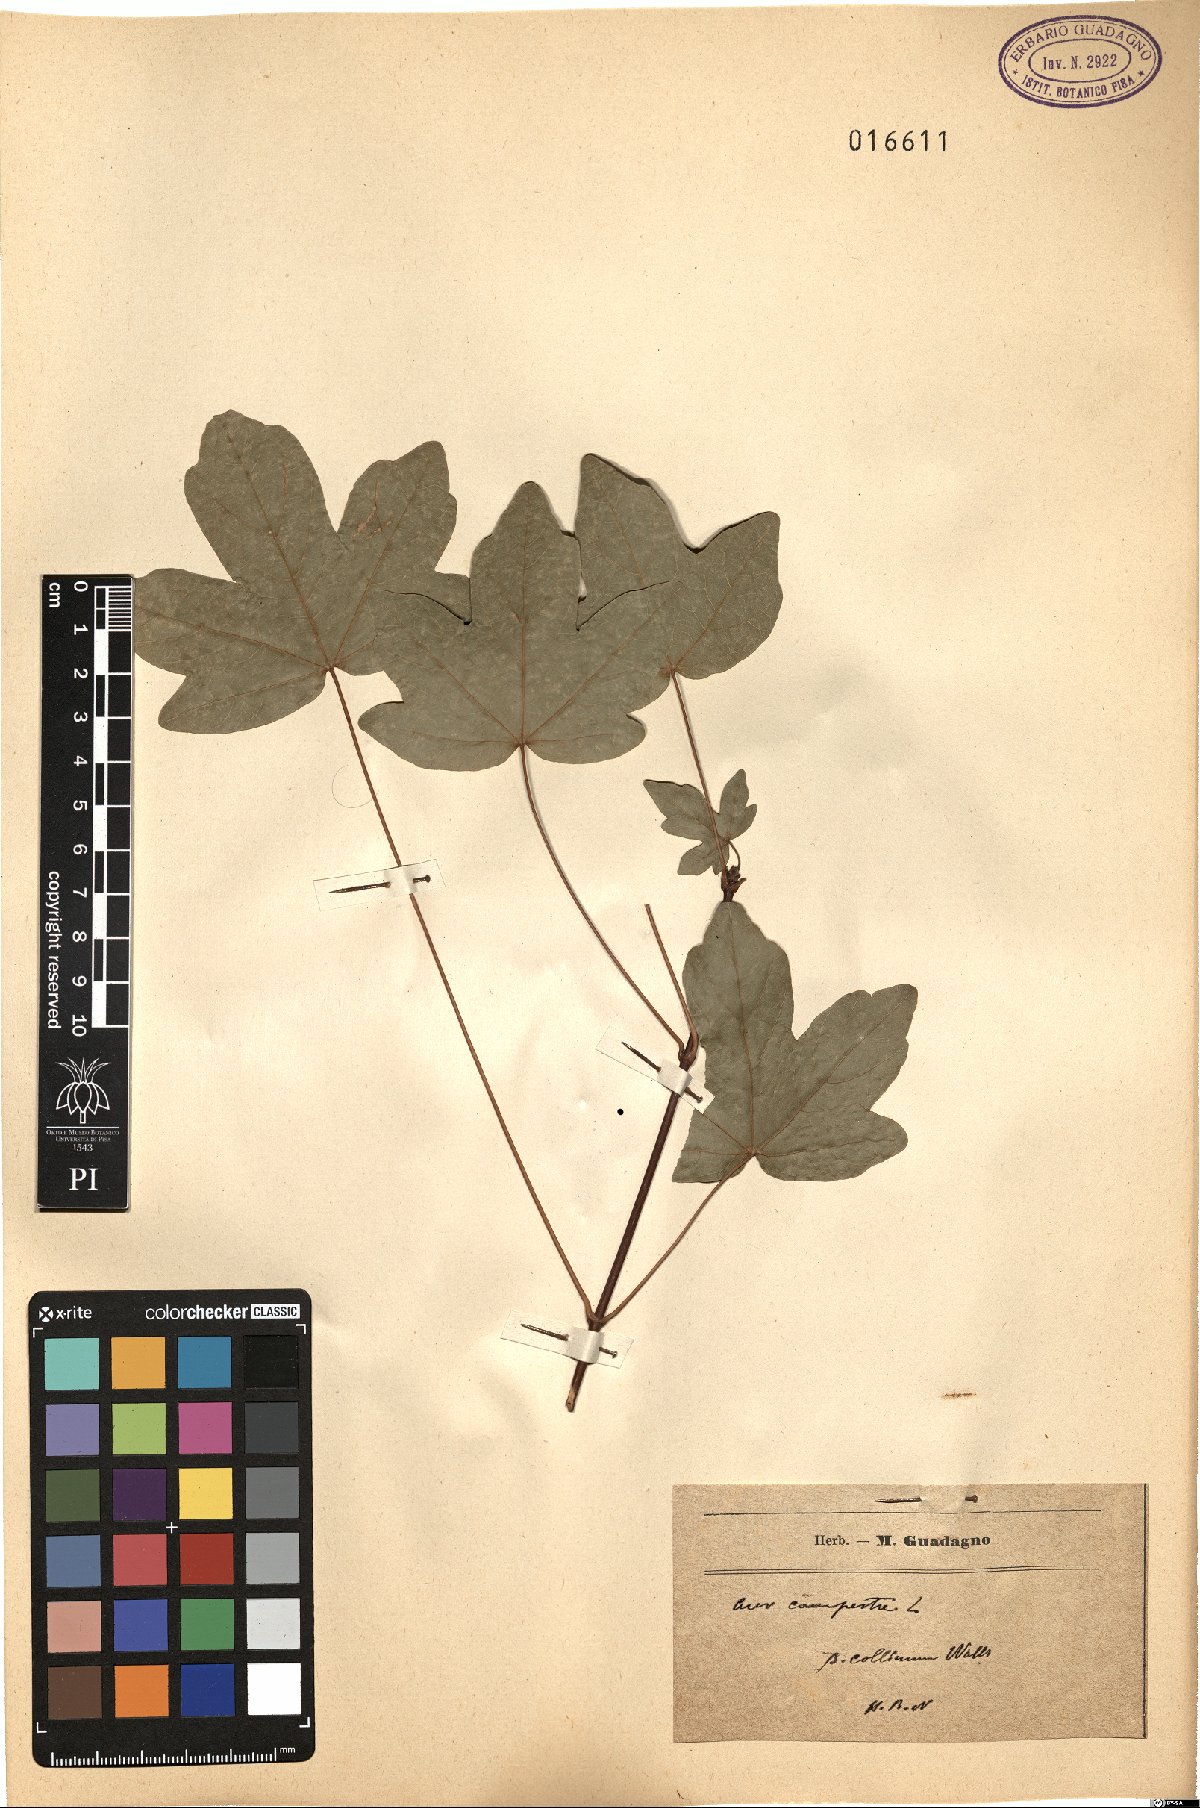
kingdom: Plantae
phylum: Tracheophyta
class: Magnoliopsida
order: Sapindales
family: Sapindaceae
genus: Acer
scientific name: Acer campestre
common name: Field maple
